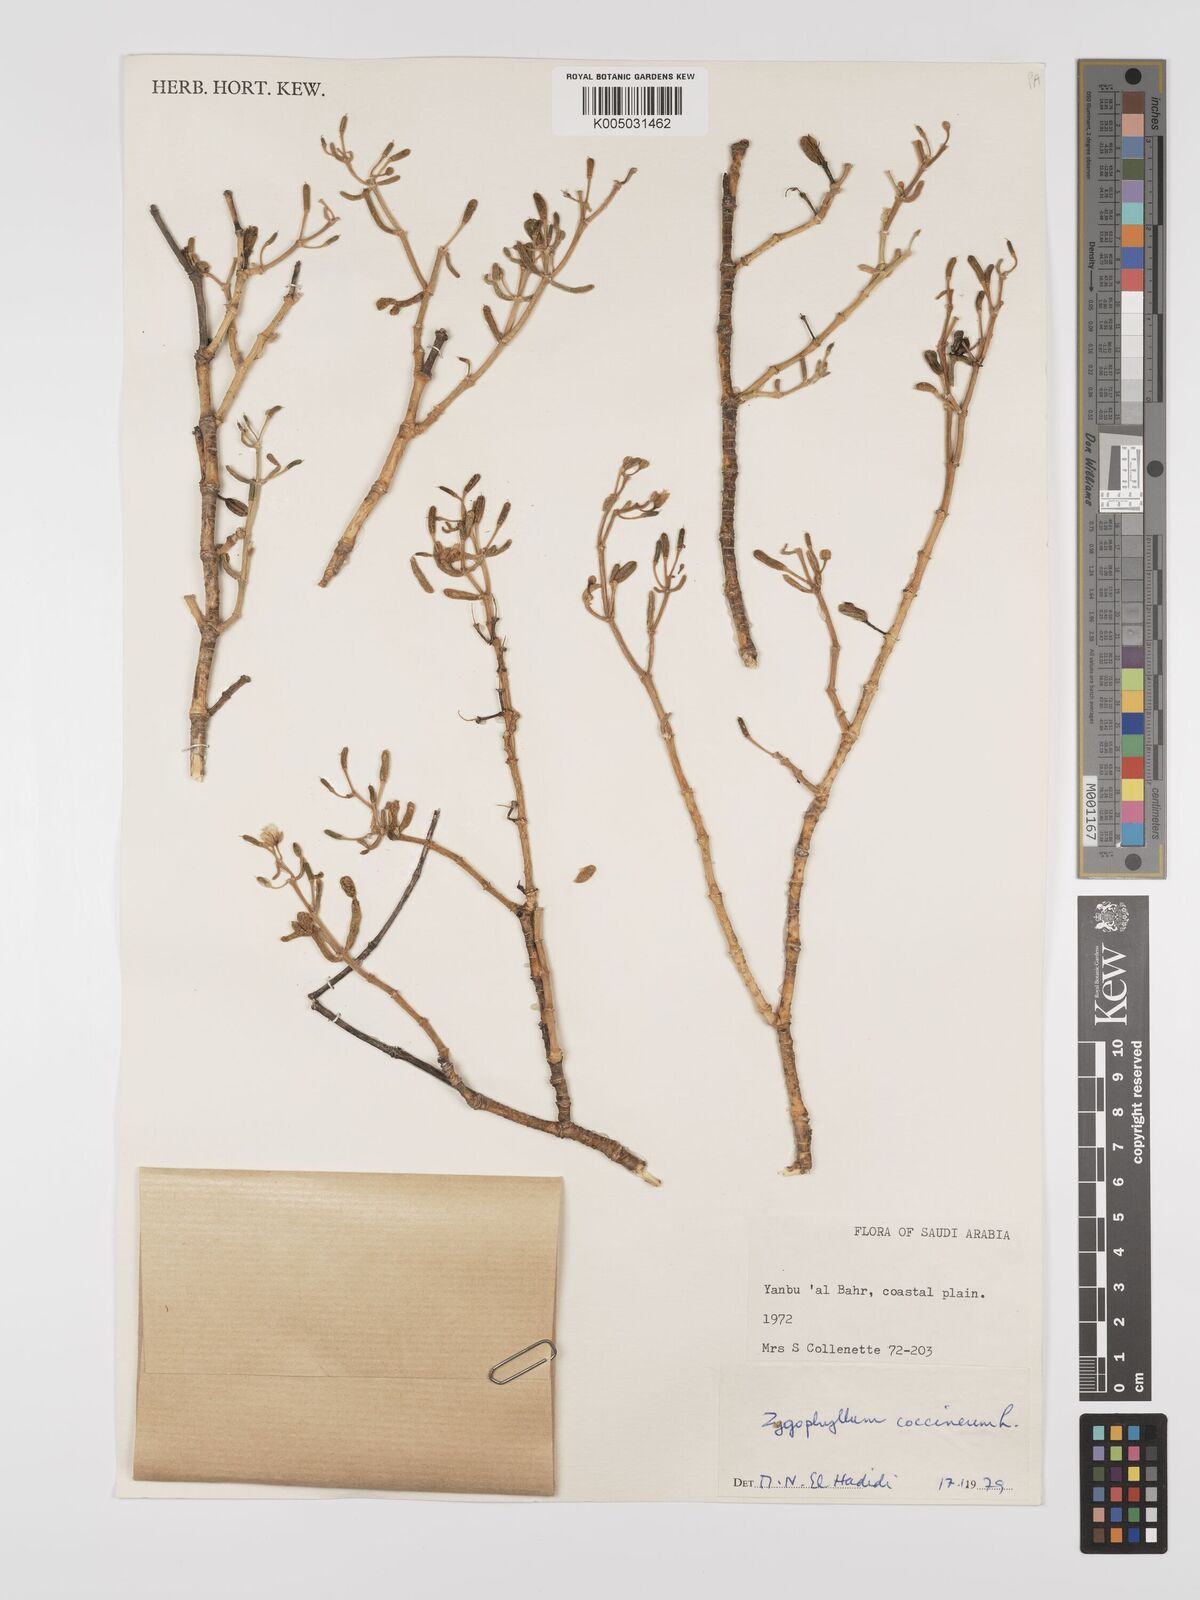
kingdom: Plantae
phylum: Tracheophyta
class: Magnoliopsida
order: Zygophyllales
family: Zygophyllaceae
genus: Zygophyllum
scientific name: Zygophyllum
